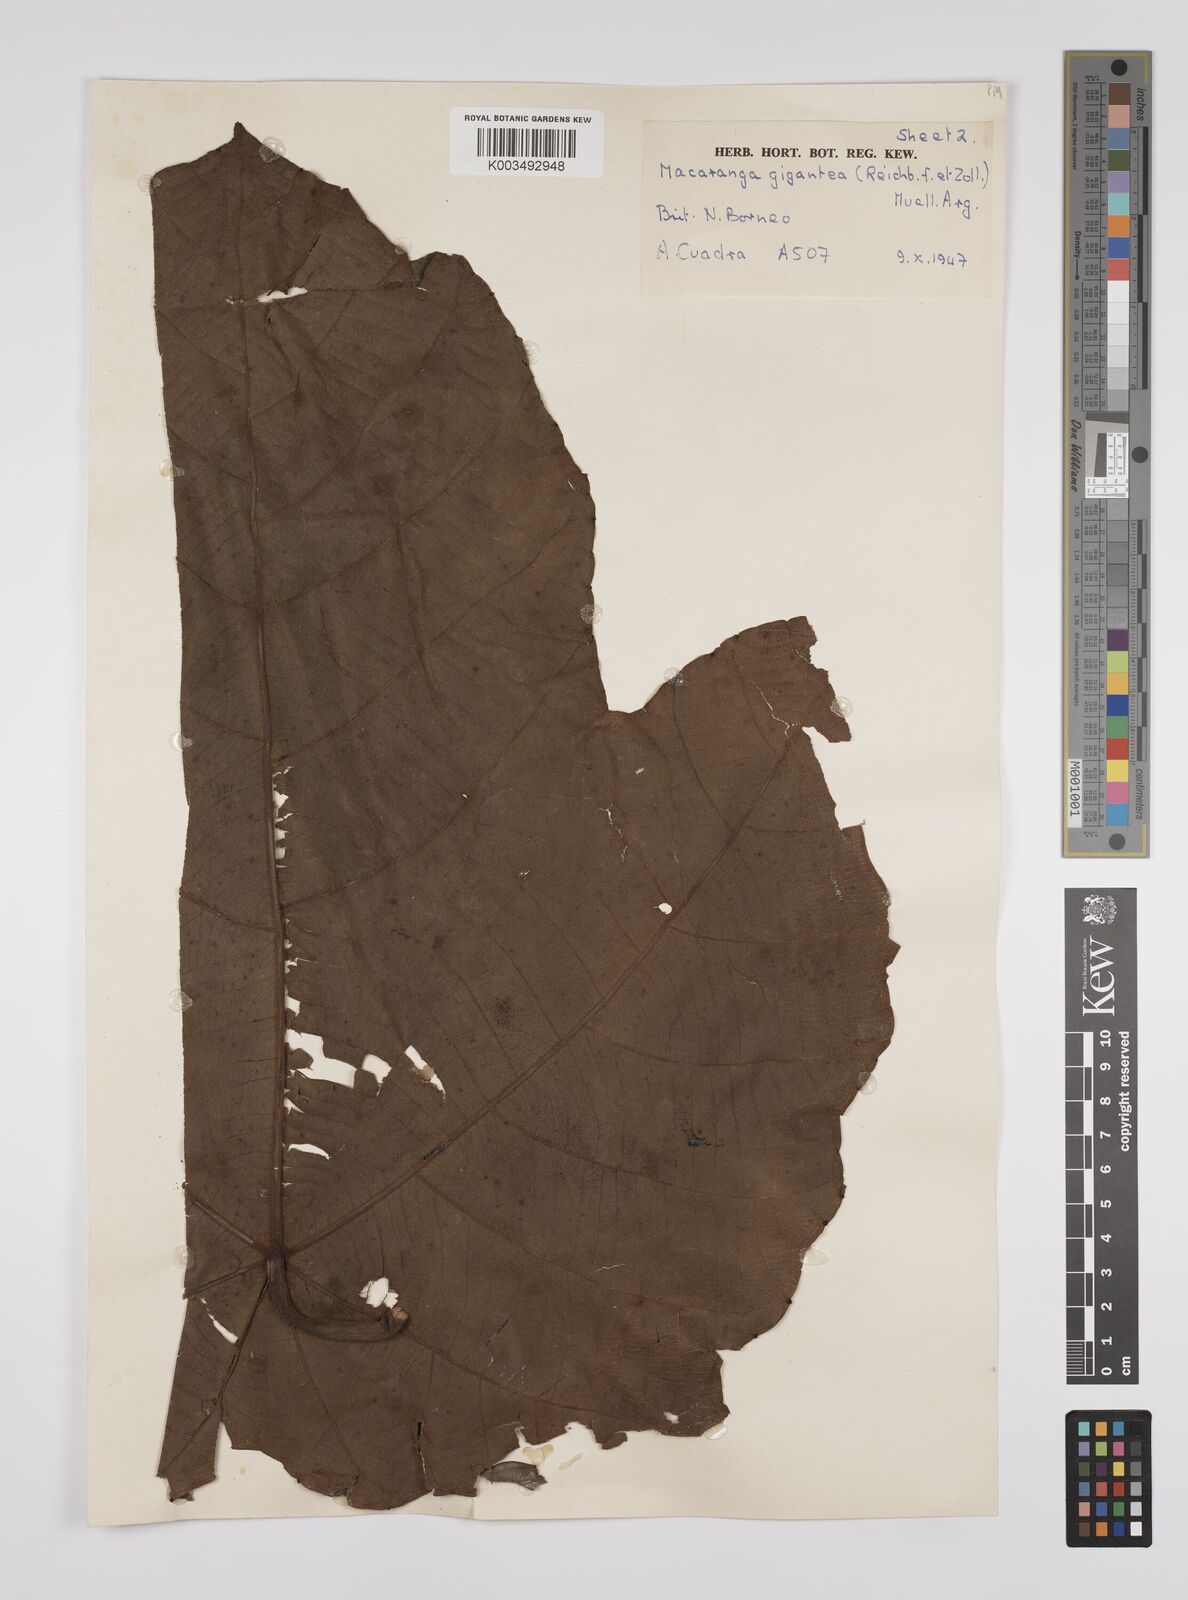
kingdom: Plantae
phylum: Tracheophyta
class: Magnoliopsida
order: Malpighiales
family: Euphorbiaceae
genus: Macaranga
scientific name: Macaranga gigantea
